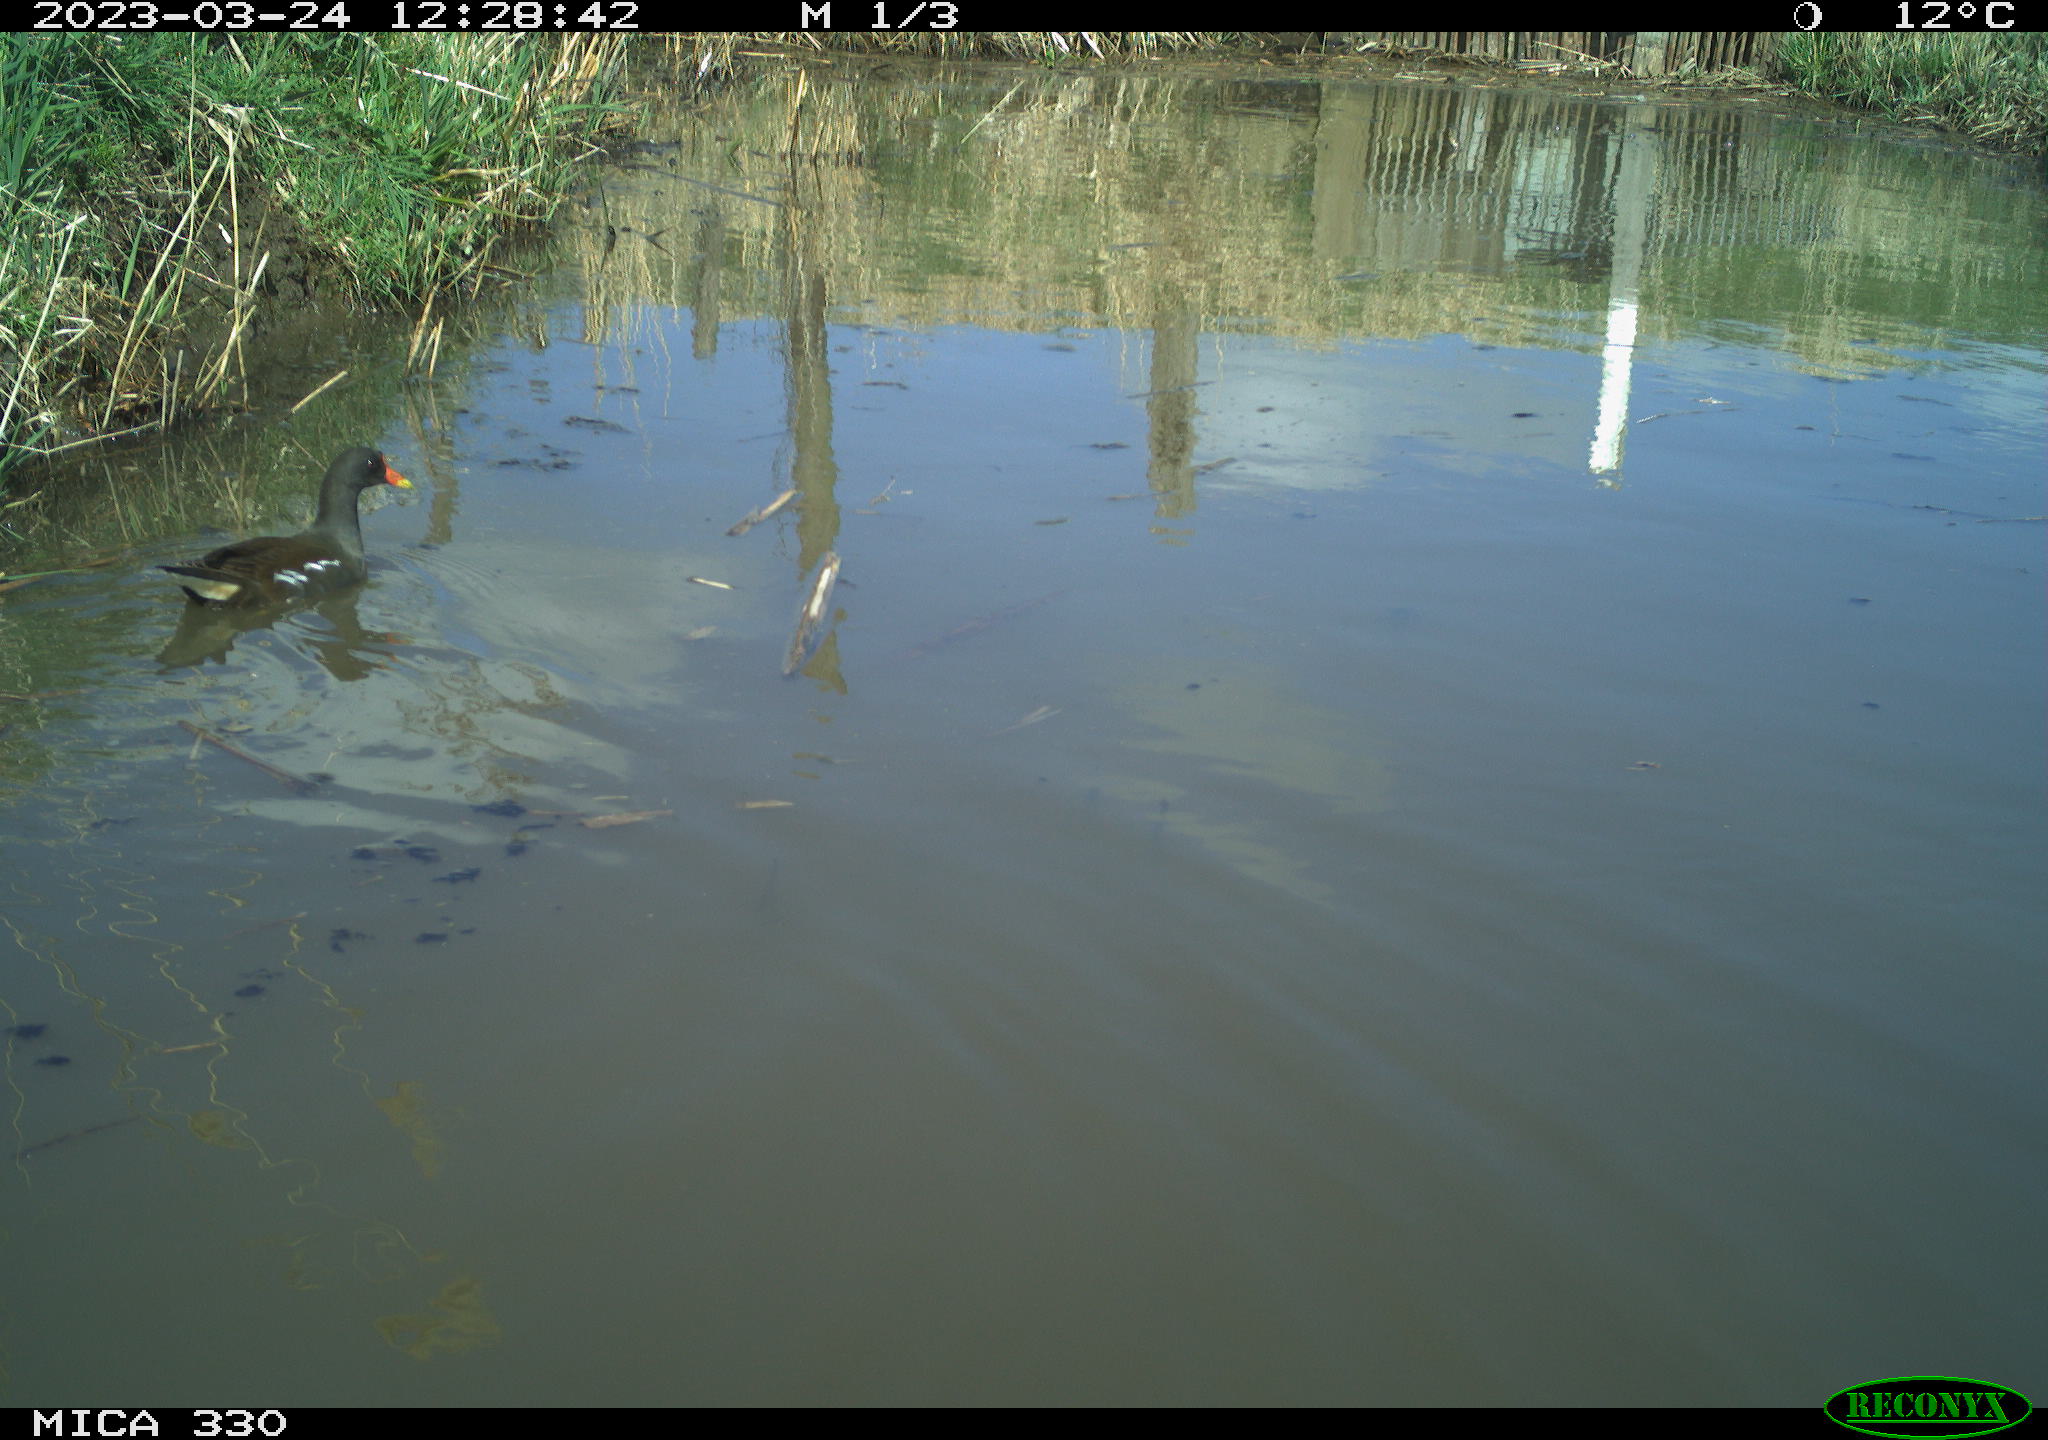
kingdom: Animalia
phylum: Chordata
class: Aves
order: Gruiformes
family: Rallidae
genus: Gallinula
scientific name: Gallinula chloropus
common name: Common moorhen
